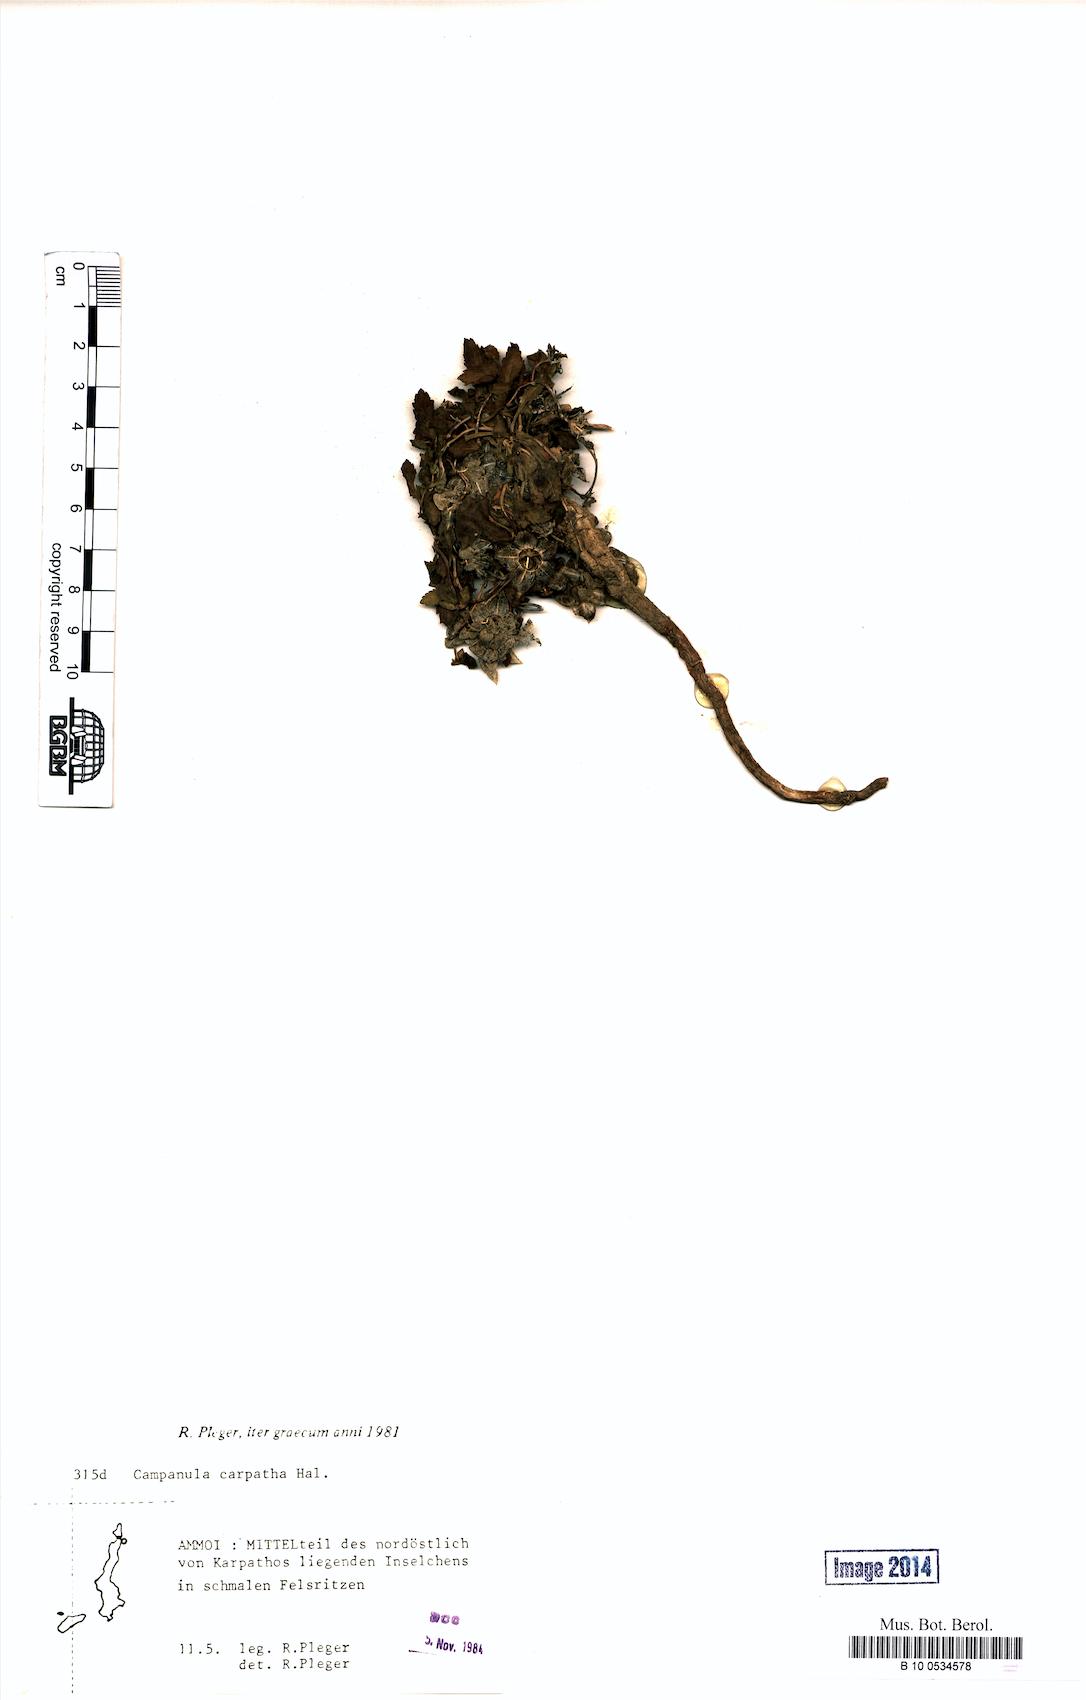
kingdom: Plantae
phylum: Tracheophyta
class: Magnoliopsida
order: Asterales
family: Campanulaceae
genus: Campanula
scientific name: Campanula carpatha
